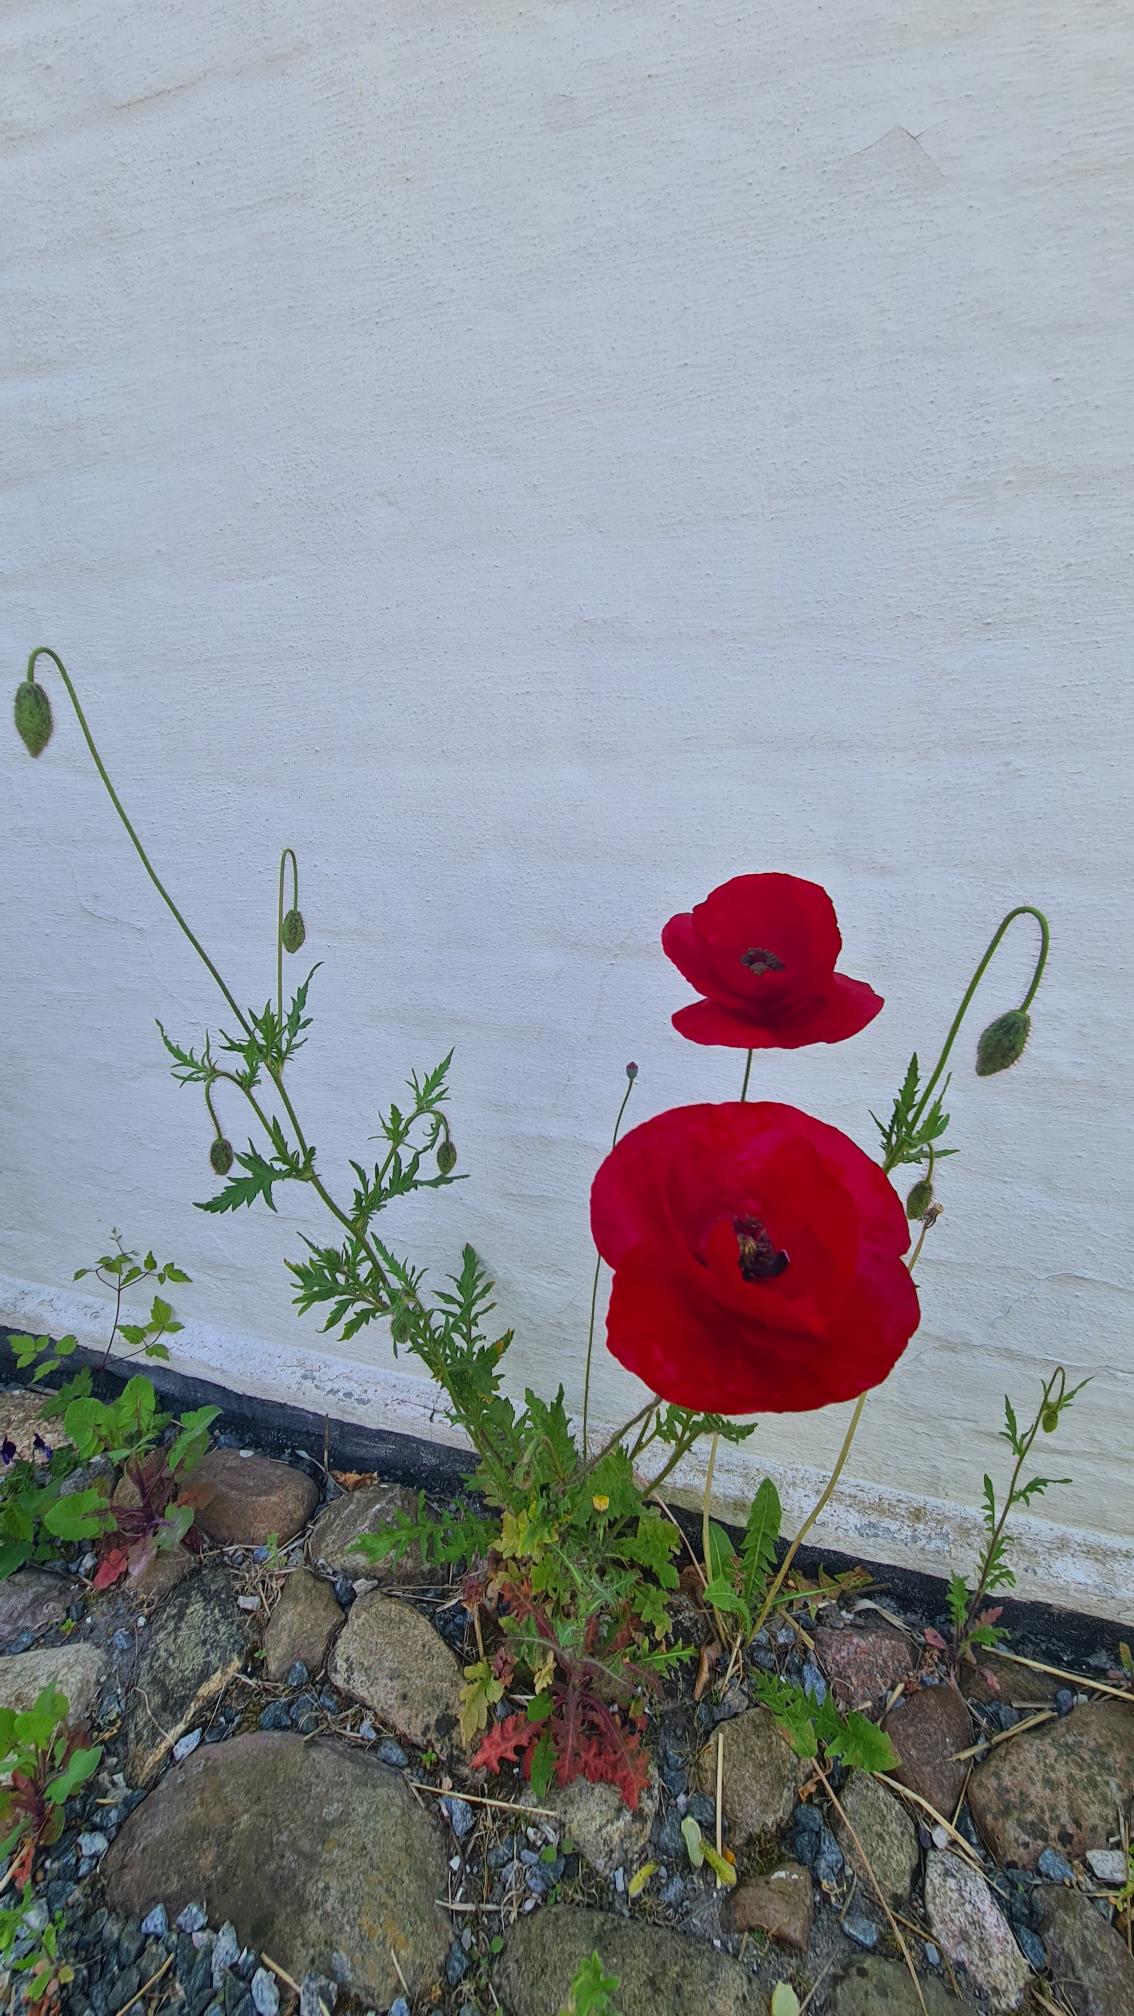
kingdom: Plantae
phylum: Tracheophyta
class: Magnoliopsida
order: Ranunculales
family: Papaveraceae
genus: Papaver
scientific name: Papaver rhoeas
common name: Korn-valmue
